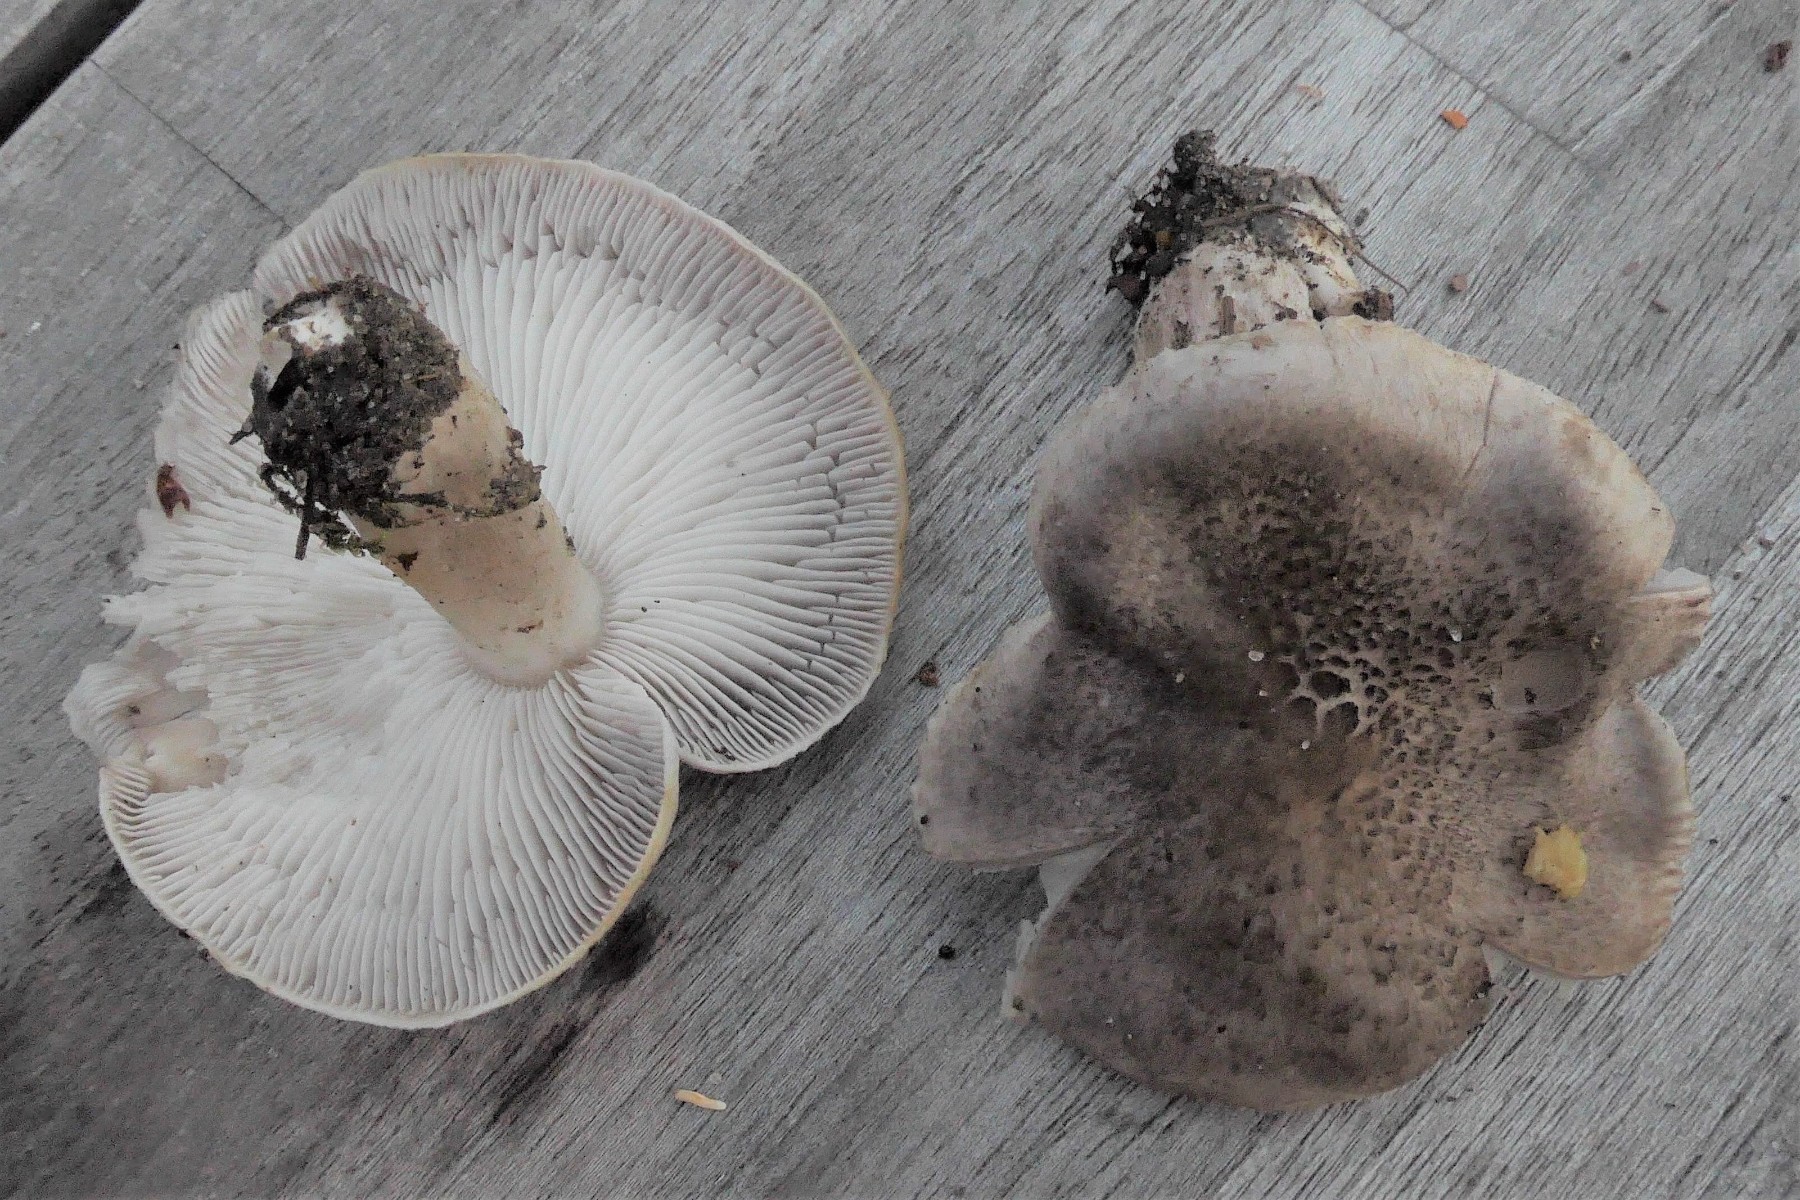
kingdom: Fungi
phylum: Basidiomycota
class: Agaricomycetes
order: Agaricales
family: Tricholomataceae
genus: Tricholoma
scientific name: Tricholoma scalpturatum
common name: gulplettet ridderhat
